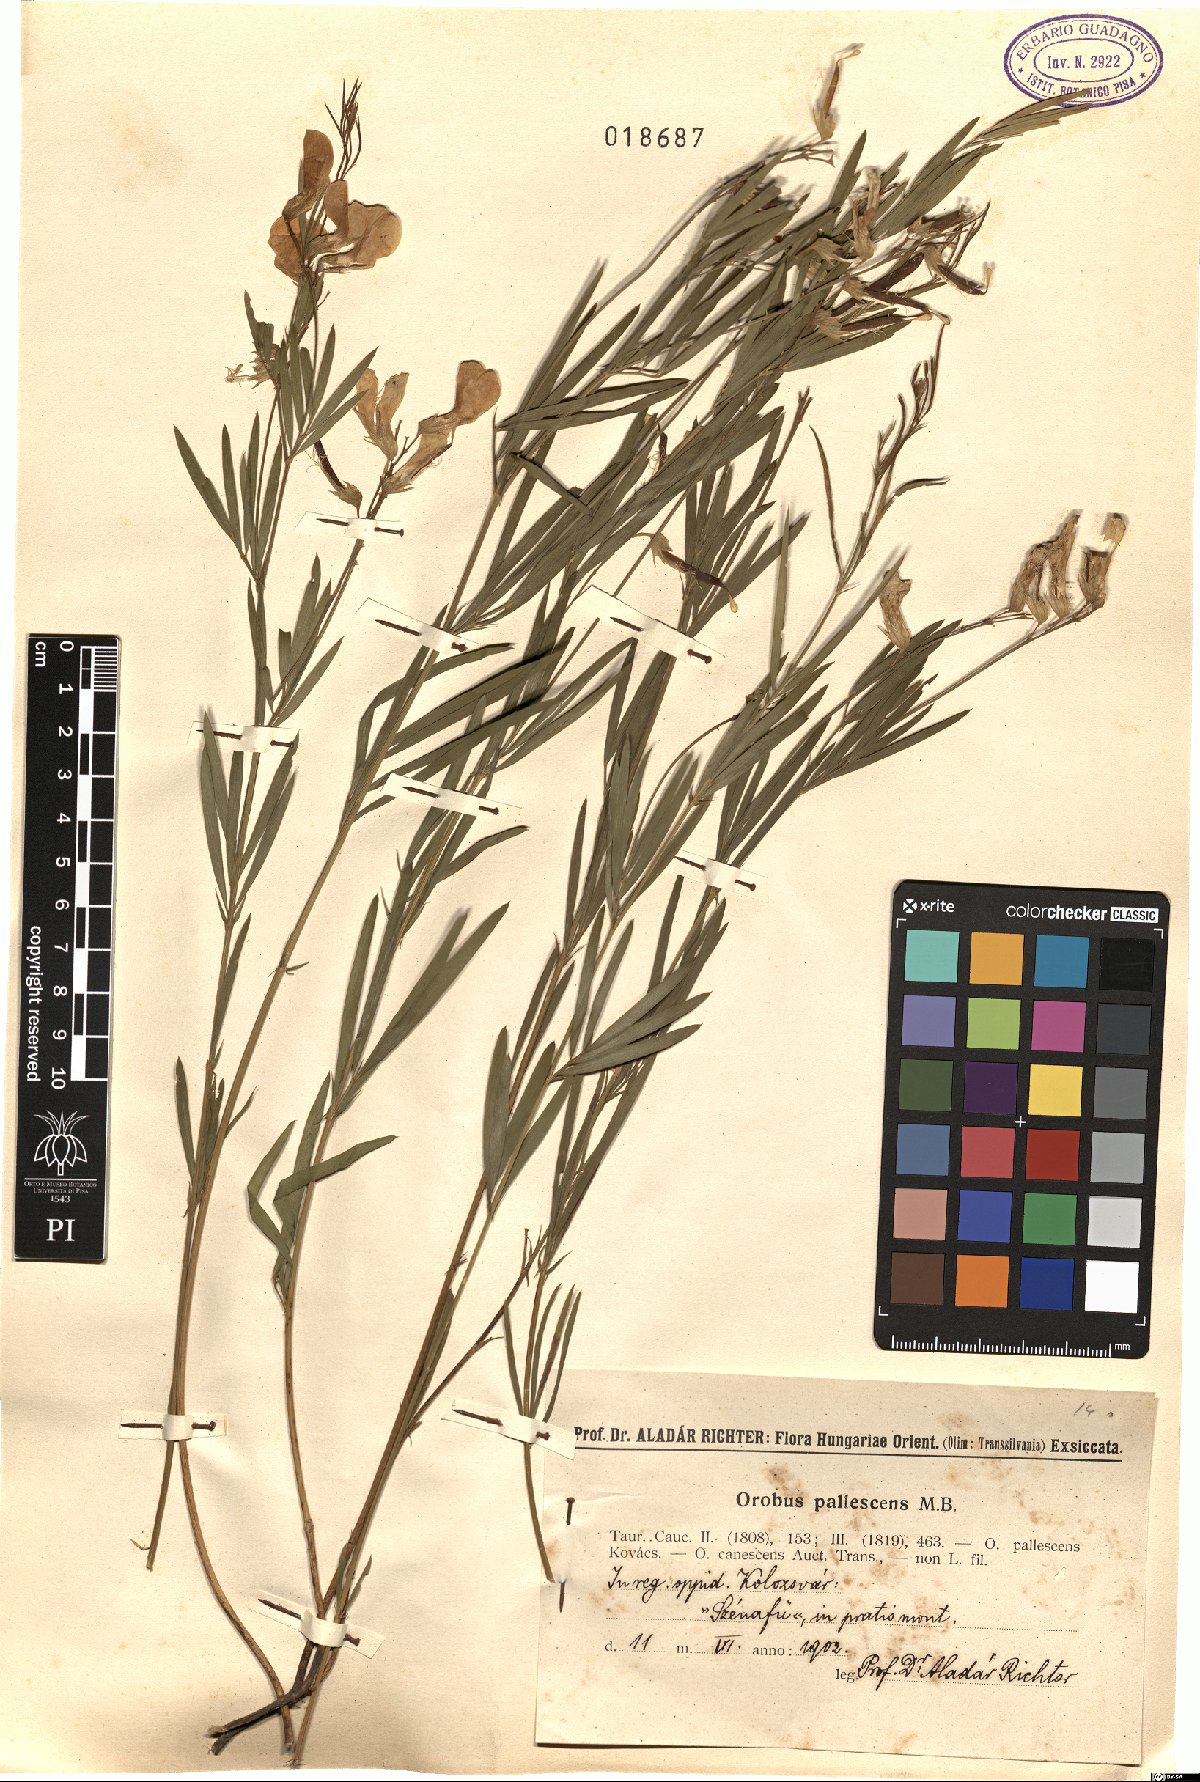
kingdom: Plantae
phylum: Tracheophyta
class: Magnoliopsida
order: Fabales
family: Fabaceae
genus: Lathyrus
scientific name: Lathyrus pallescens
